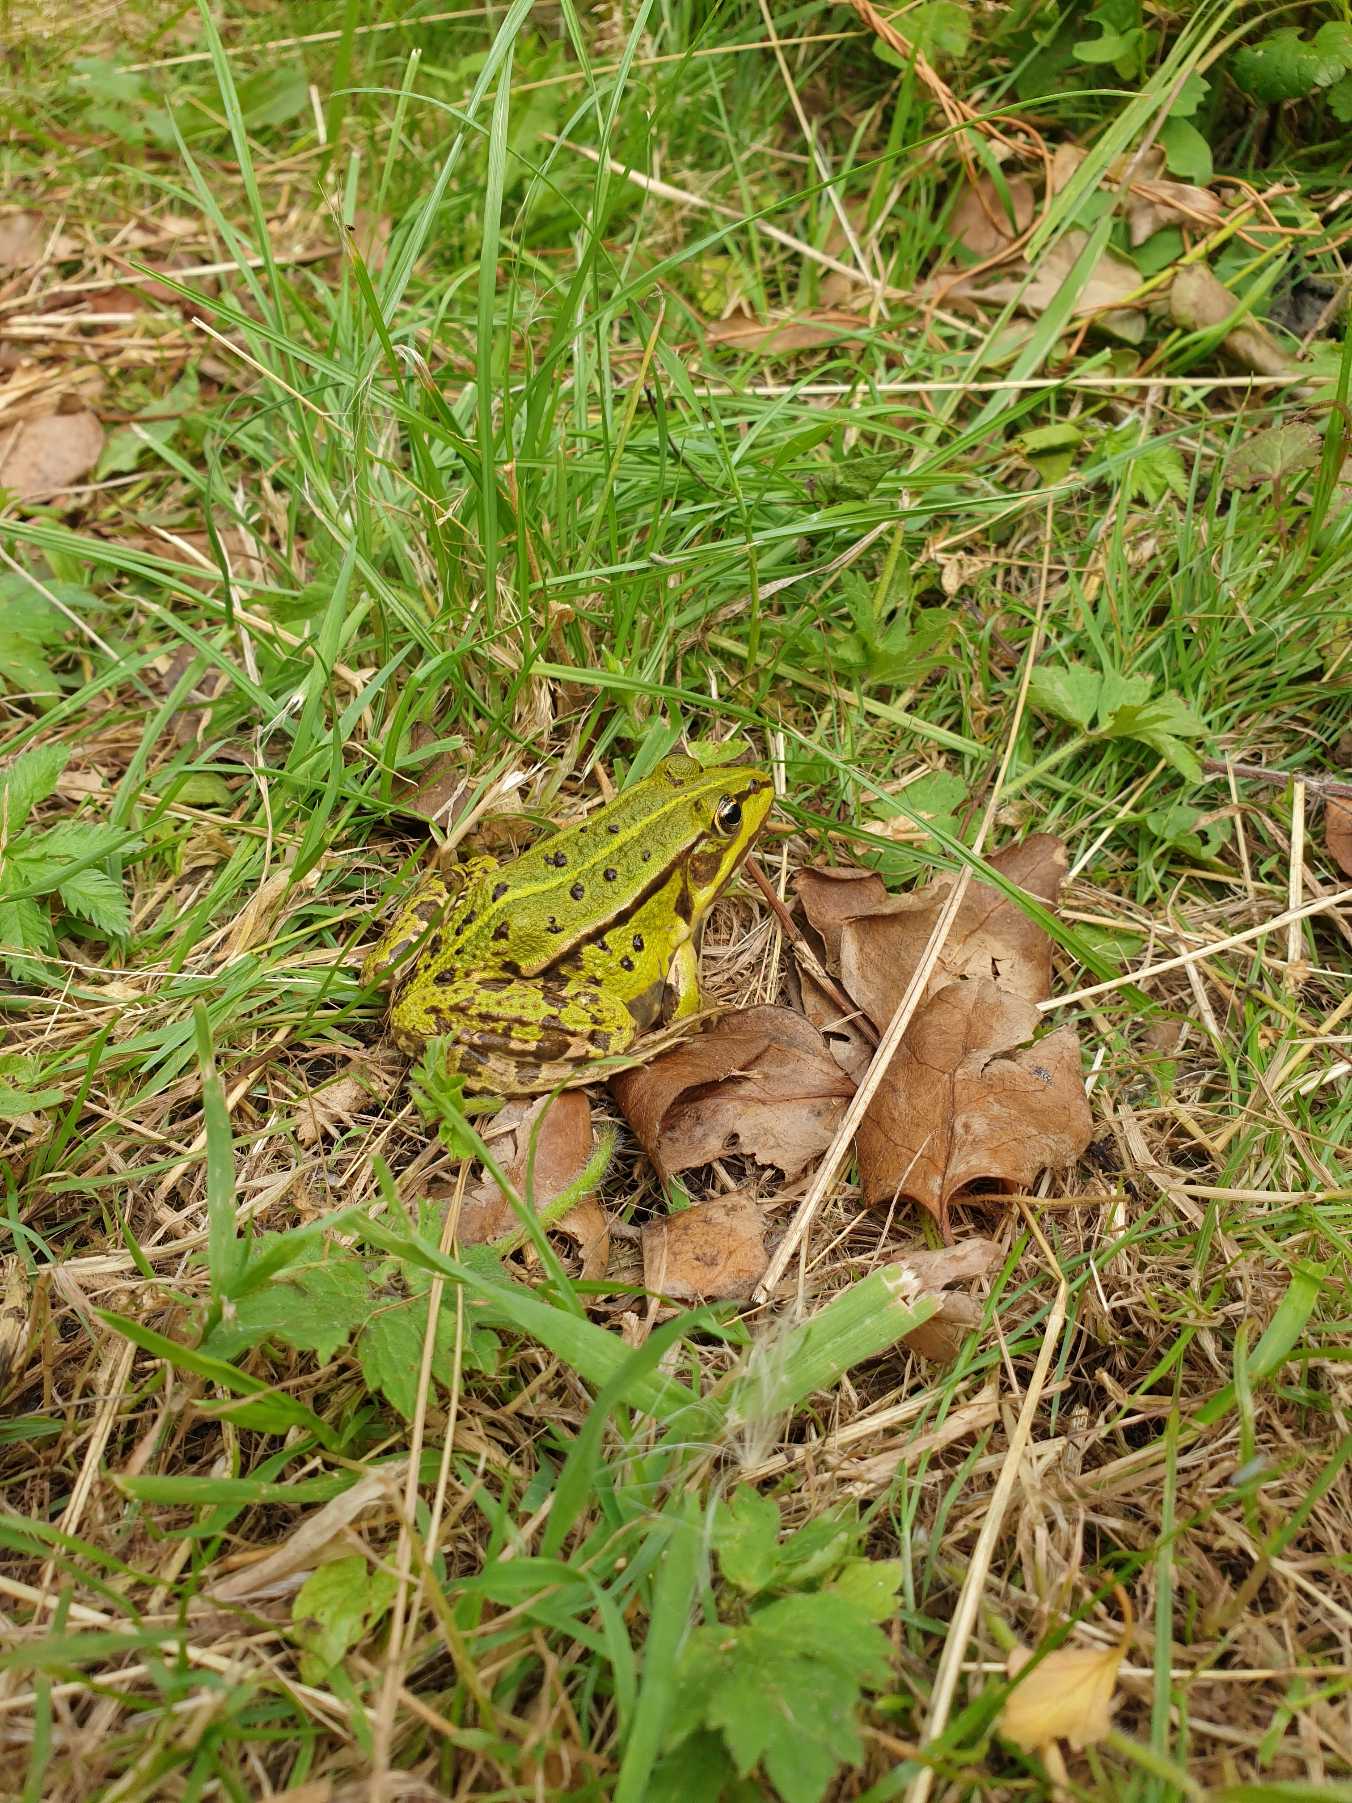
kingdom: Animalia
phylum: Chordata
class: Amphibia
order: Anura
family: Ranidae
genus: Pelophylax
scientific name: Pelophylax lessonae
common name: Grøn frø
